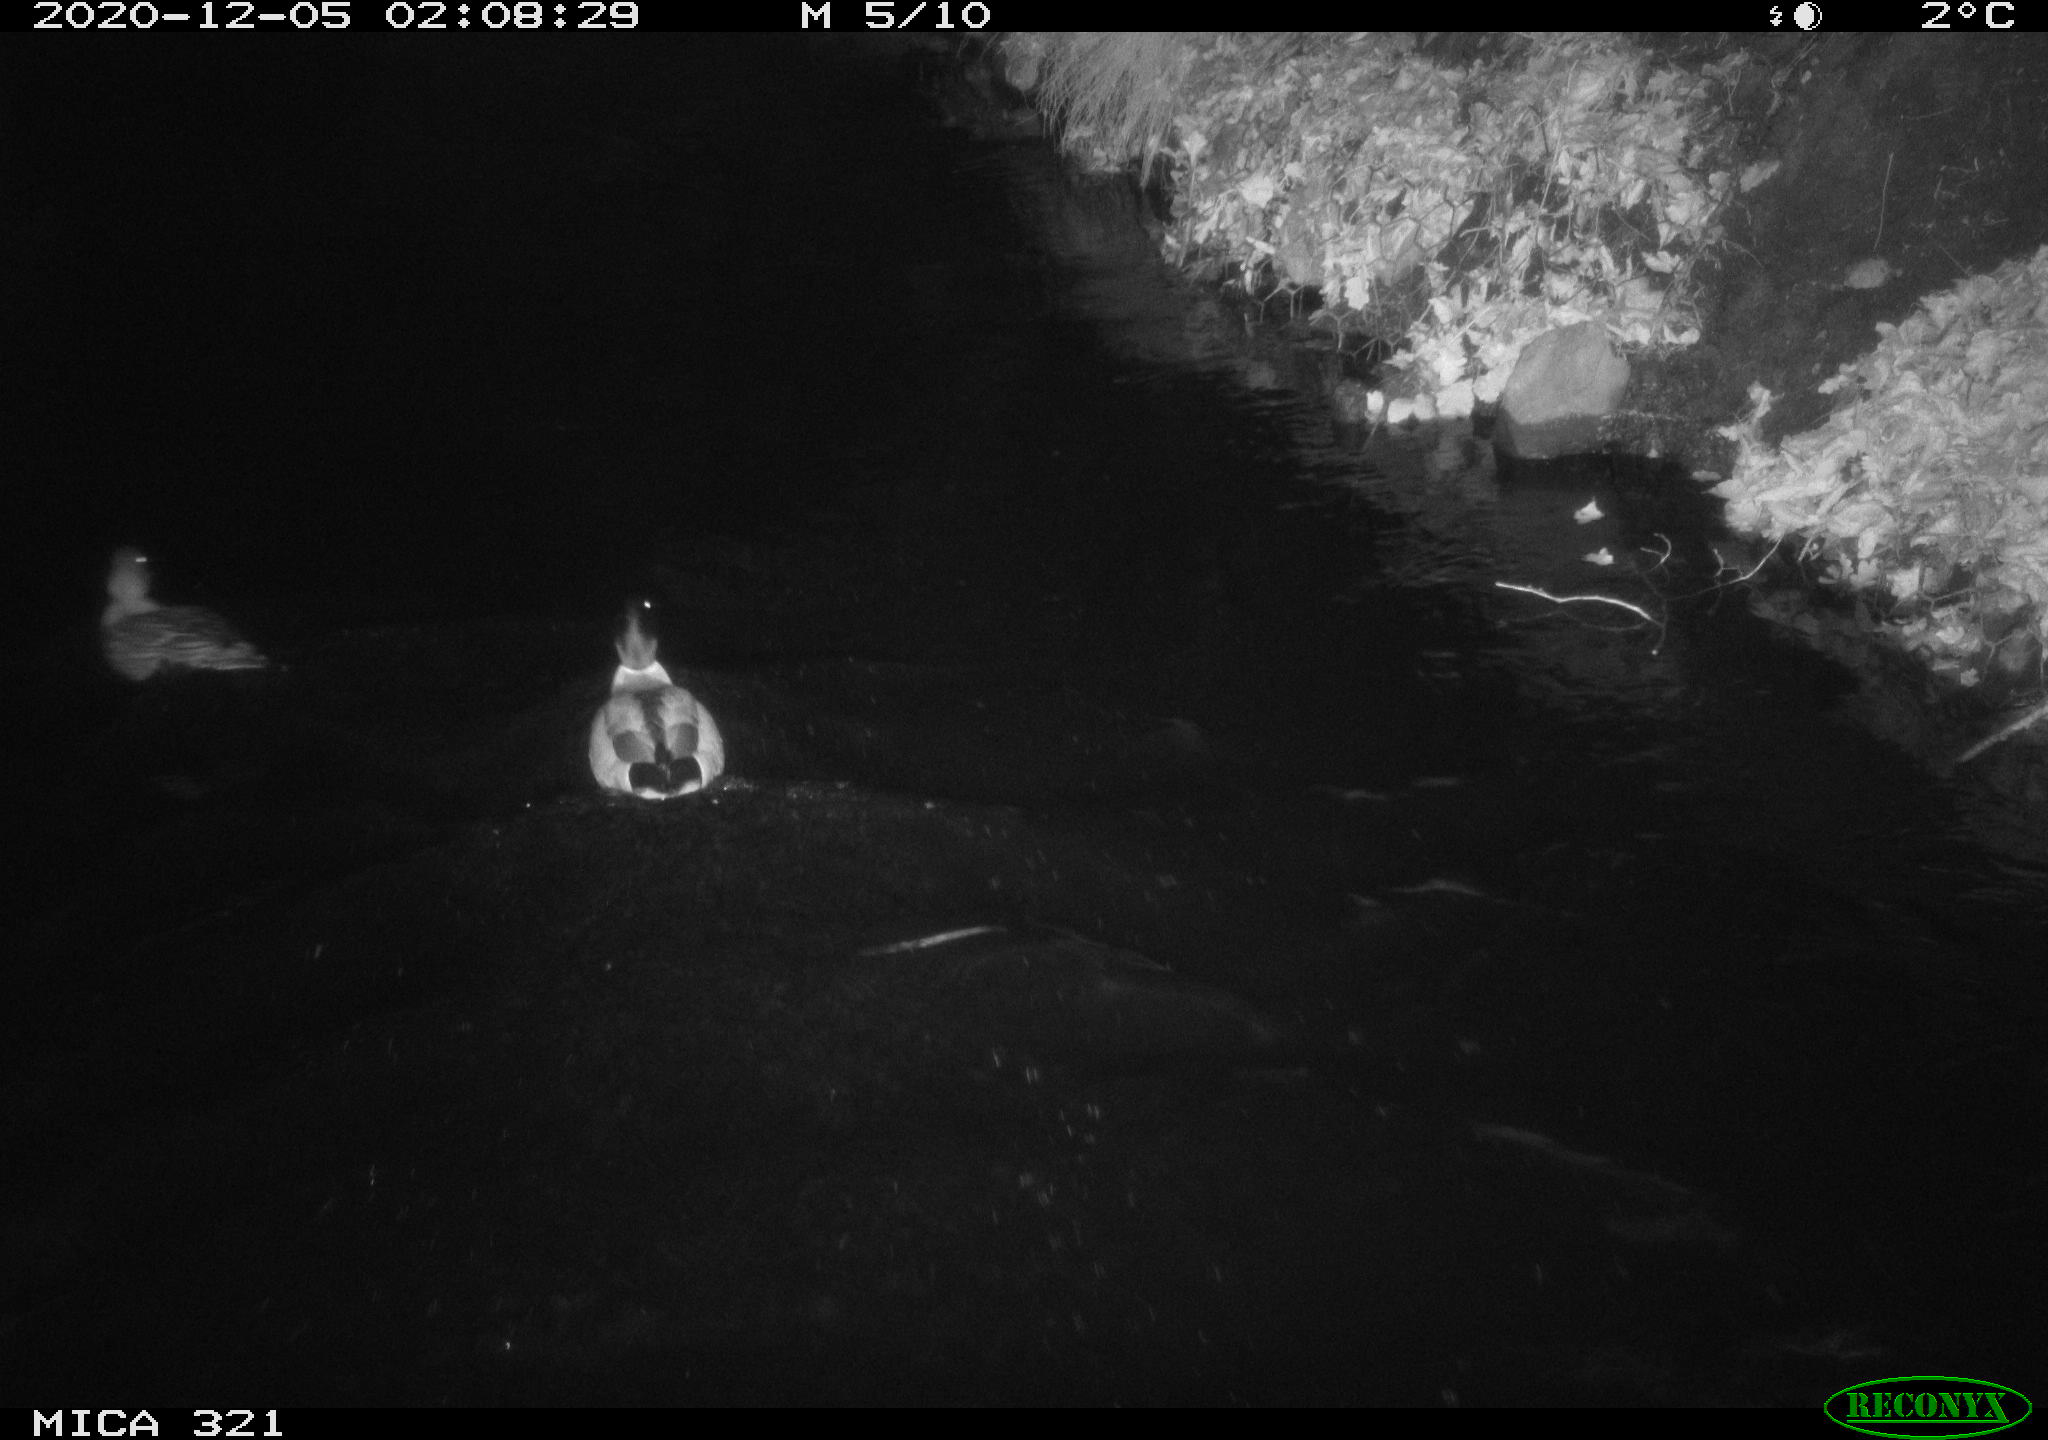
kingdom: Animalia
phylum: Chordata
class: Aves
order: Anseriformes
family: Anatidae
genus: Anas
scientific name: Anas platyrhynchos
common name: Mallard
